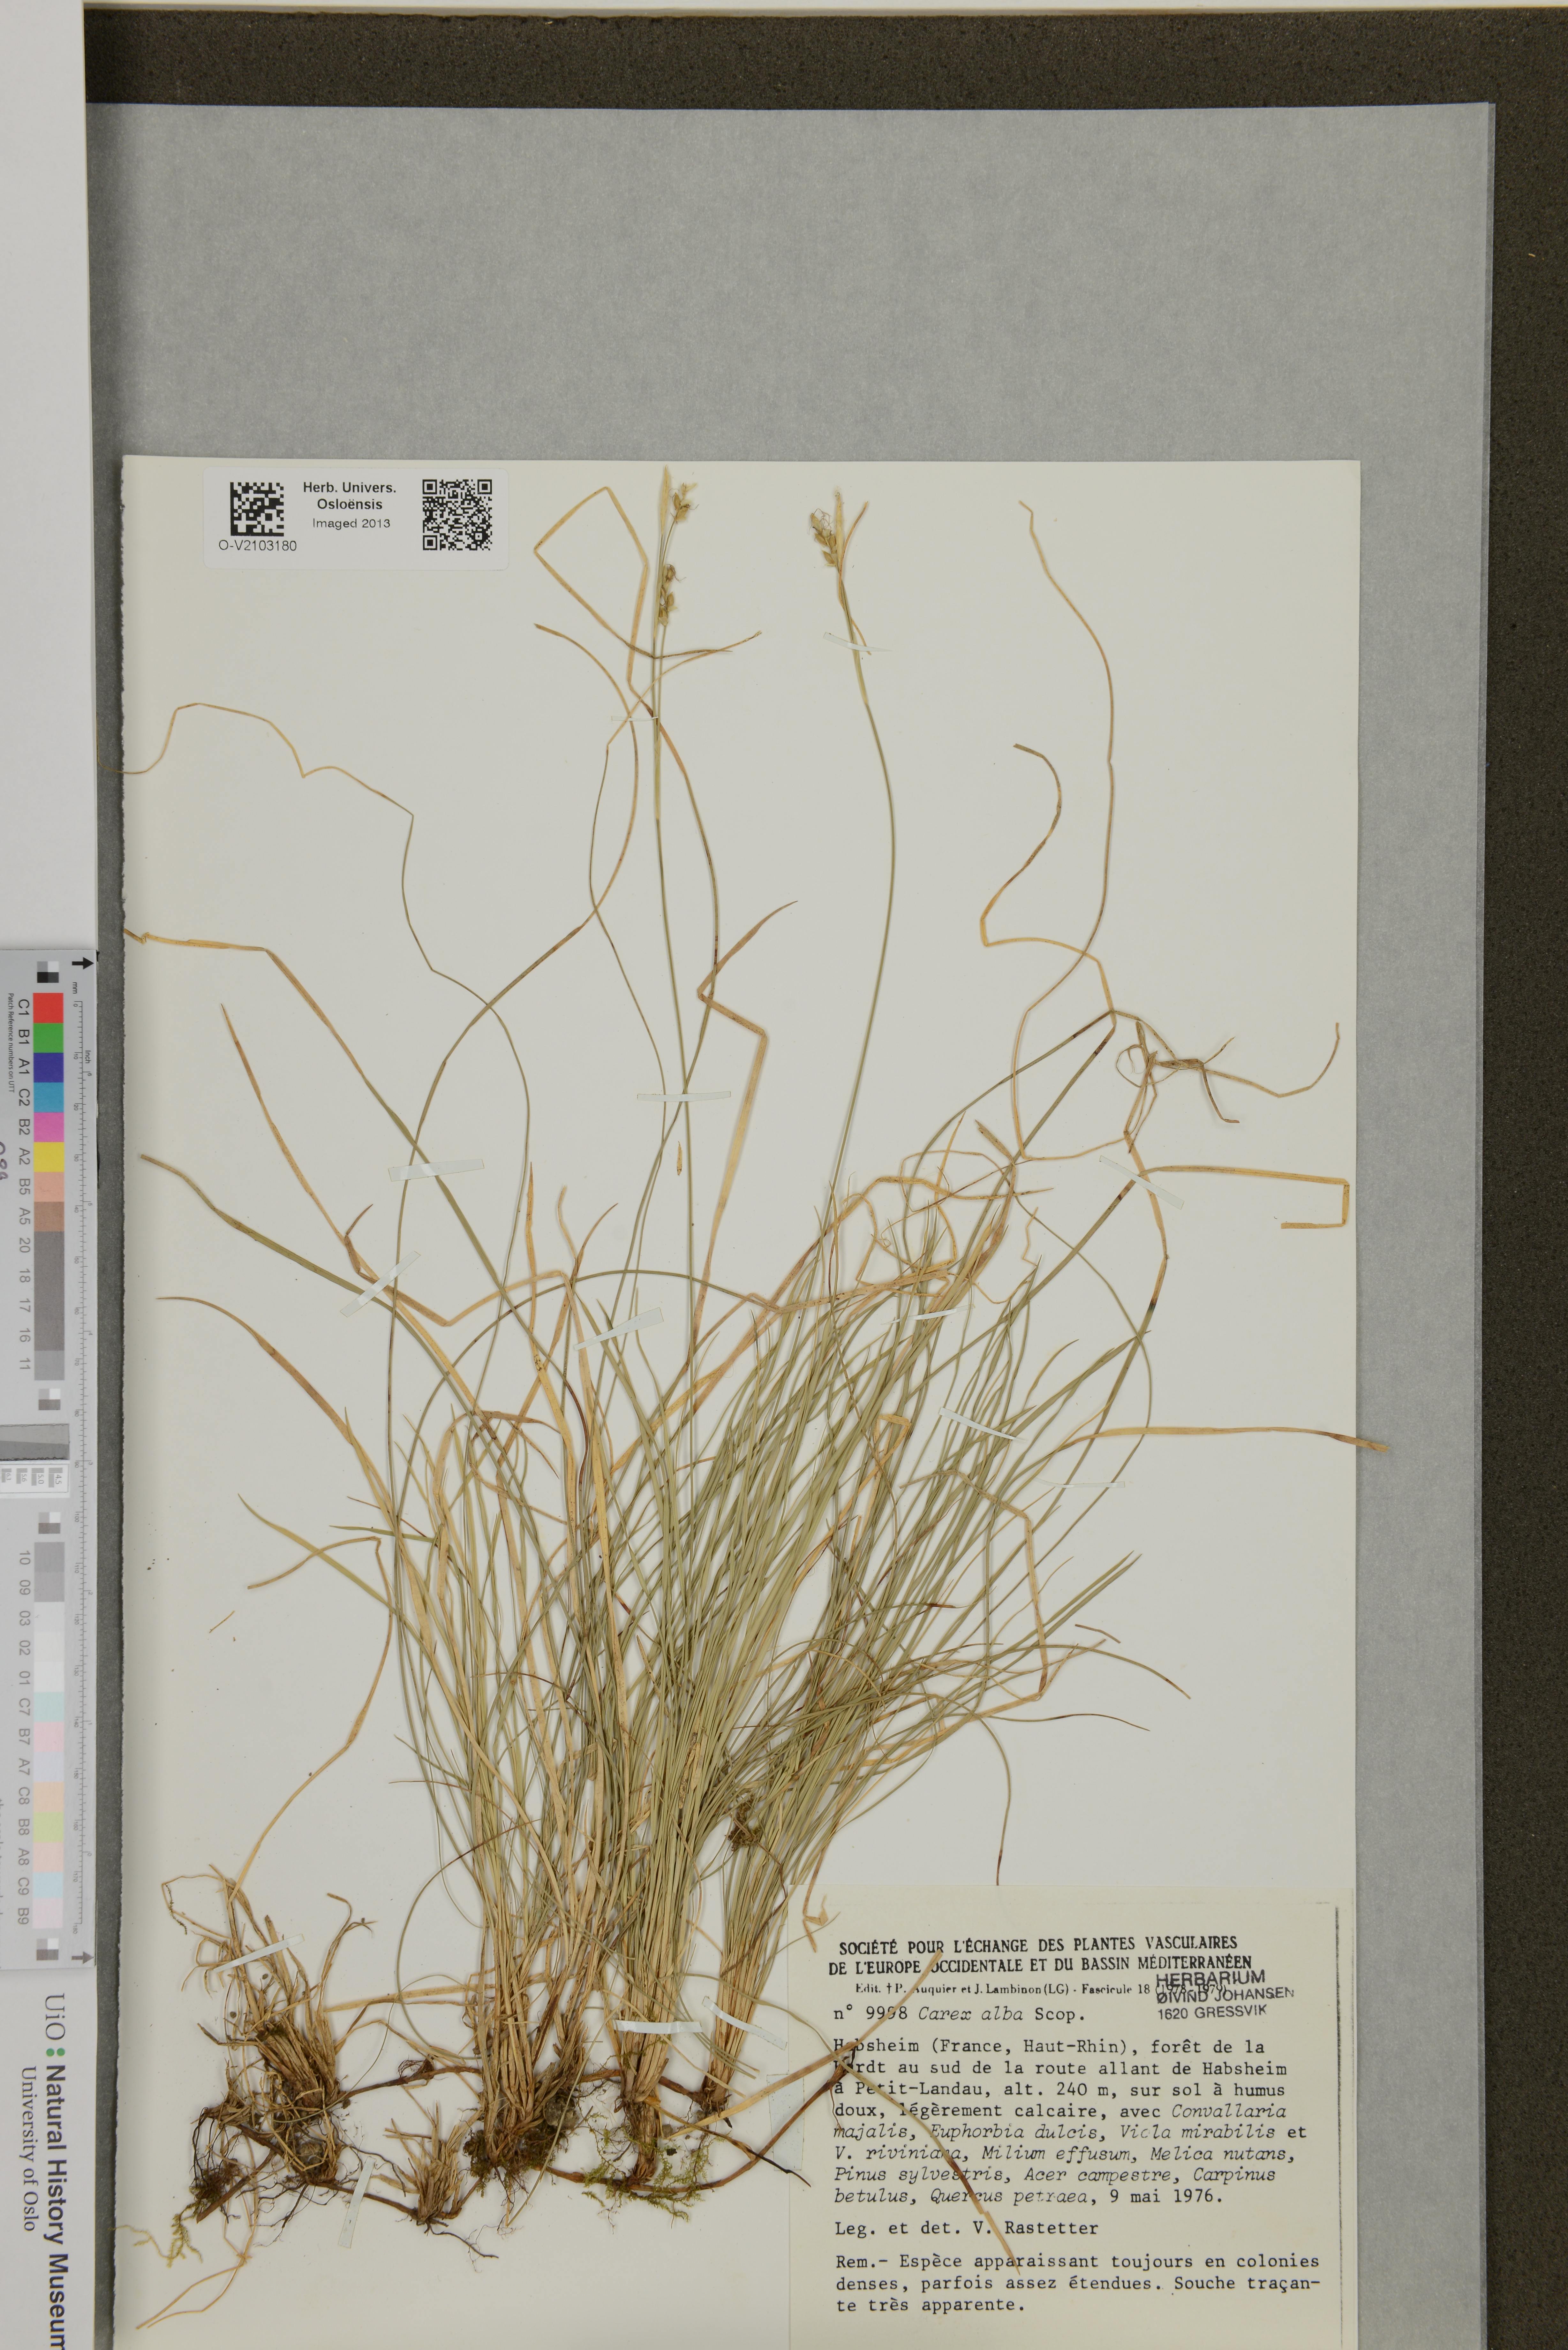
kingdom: Plantae
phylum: Tracheophyta
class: Liliopsida
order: Poales
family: Cyperaceae
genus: Carex
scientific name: Carex alba
